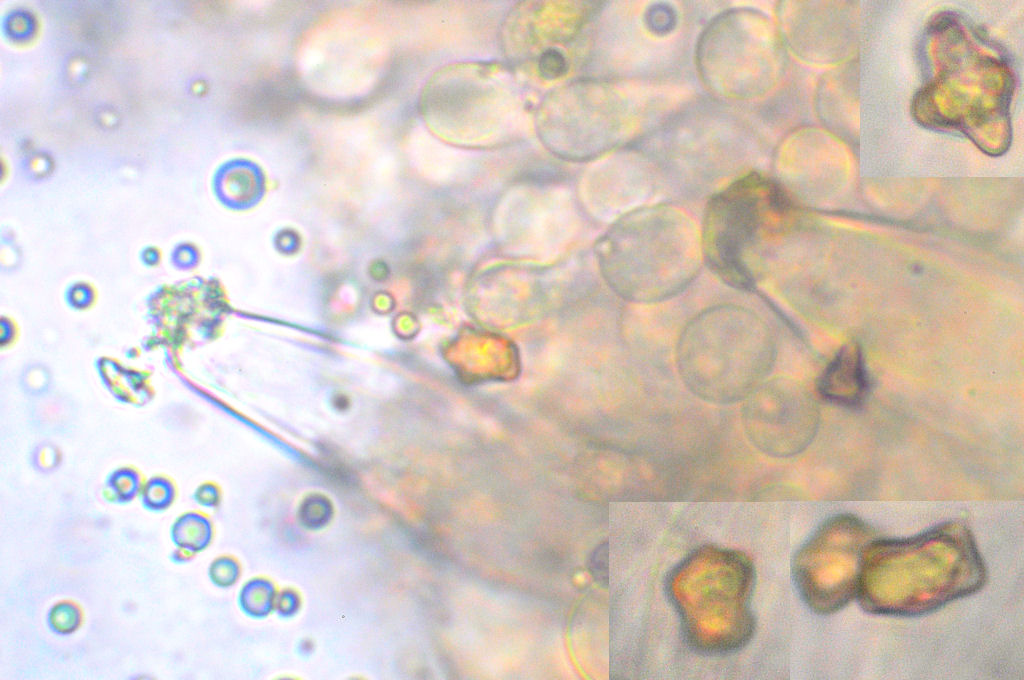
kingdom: Fungi
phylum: Basidiomycota
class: Agaricomycetes
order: Agaricales
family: Inocybaceae
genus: Inocybe
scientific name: Inocybe
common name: trævlhat
